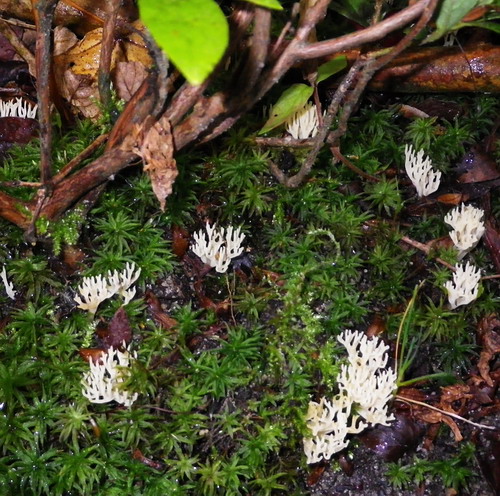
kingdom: Fungi
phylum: Basidiomycota
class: Agaricomycetes
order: Agaricales
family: Clavariaceae
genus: Ramariopsis
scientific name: Ramariopsis
